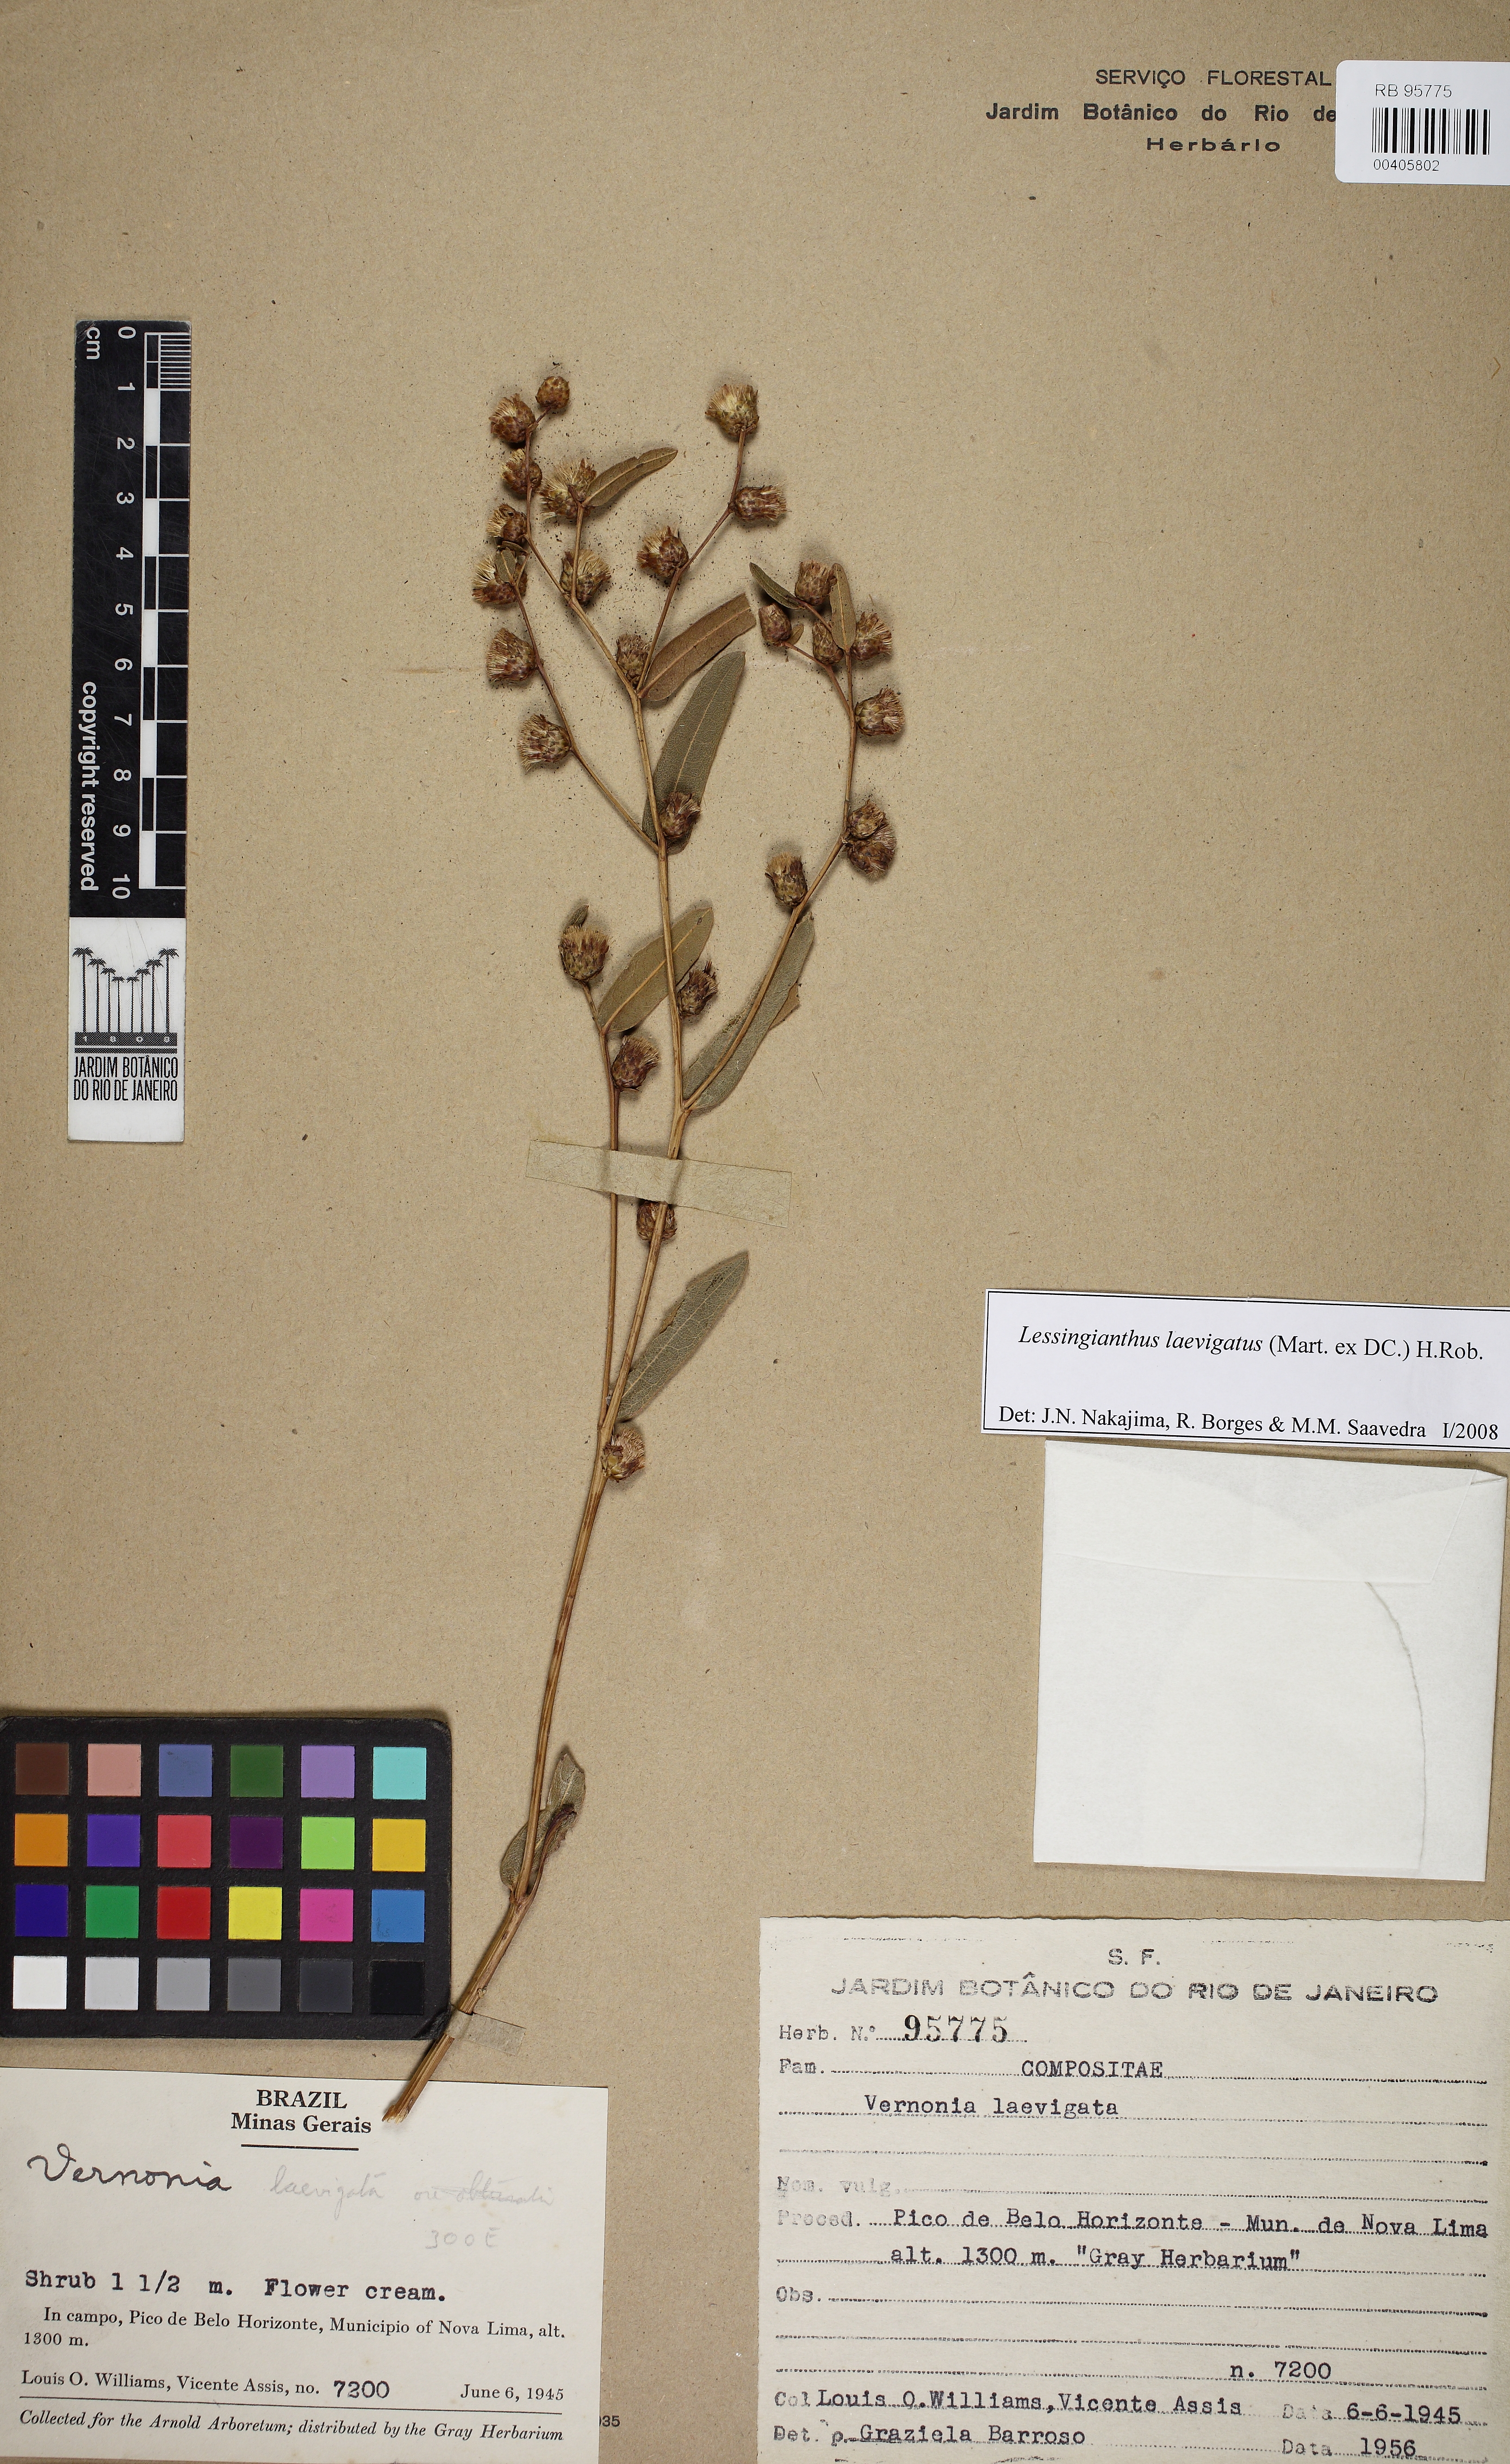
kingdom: Plantae
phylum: Tracheophyta
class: Magnoliopsida
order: Asterales
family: Asteraceae
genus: Lessingianthus
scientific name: Lessingianthus laevigatus
